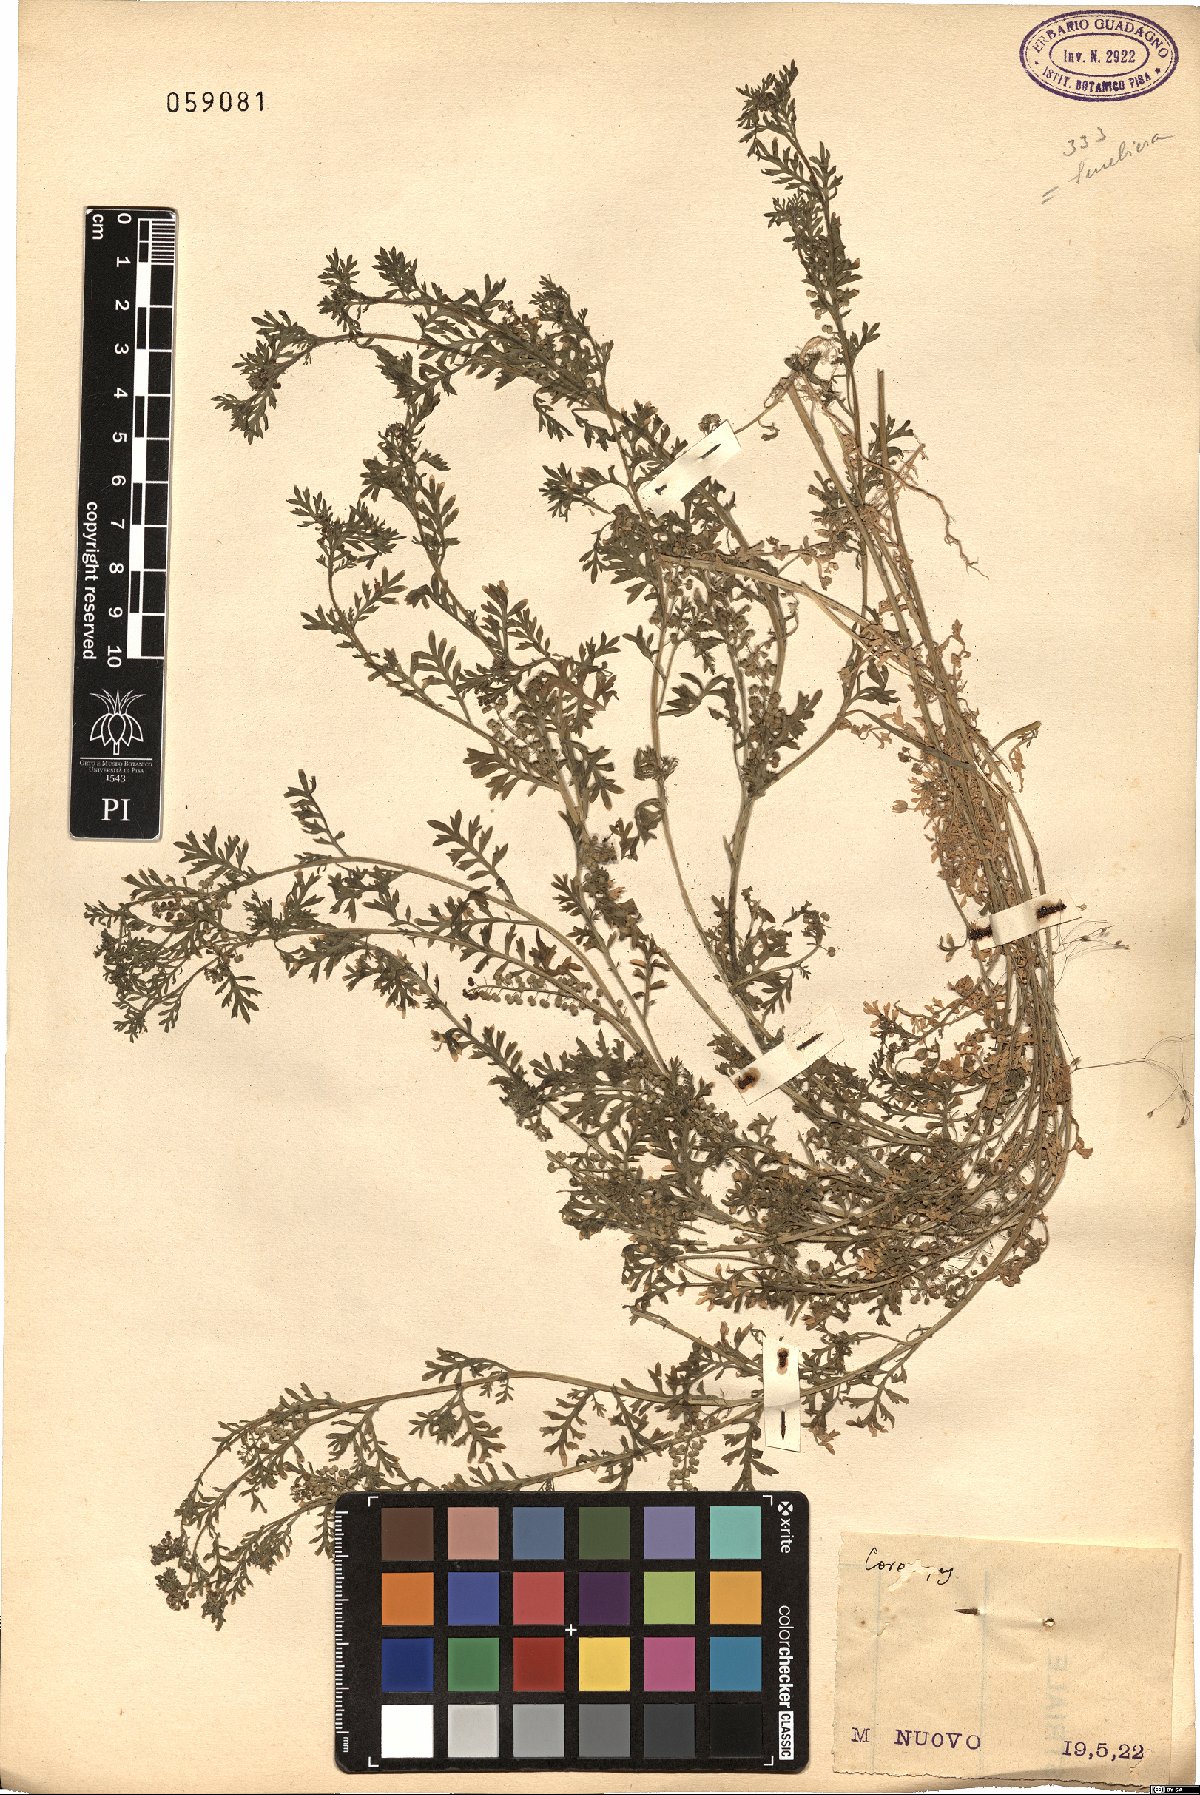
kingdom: Plantae
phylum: Tracheophyta
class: Magnoliopsida
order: Brassicales
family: Brassicaceae
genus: Coronopus
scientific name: Coronopus
